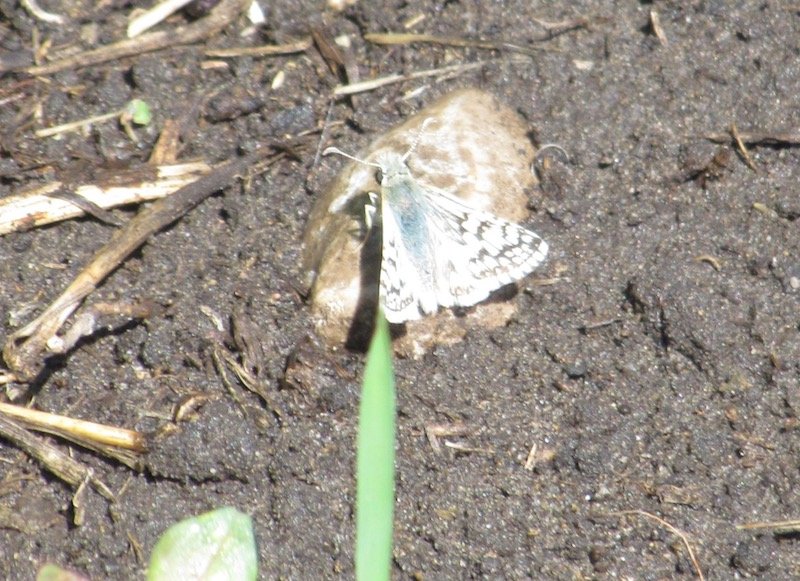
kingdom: Animalia
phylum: Arthropoda
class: Insecta
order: Lepidoptera
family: Hesperiidae
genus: Pyrgus
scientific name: Pyrgus communis
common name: Common Checkered-Skipper
